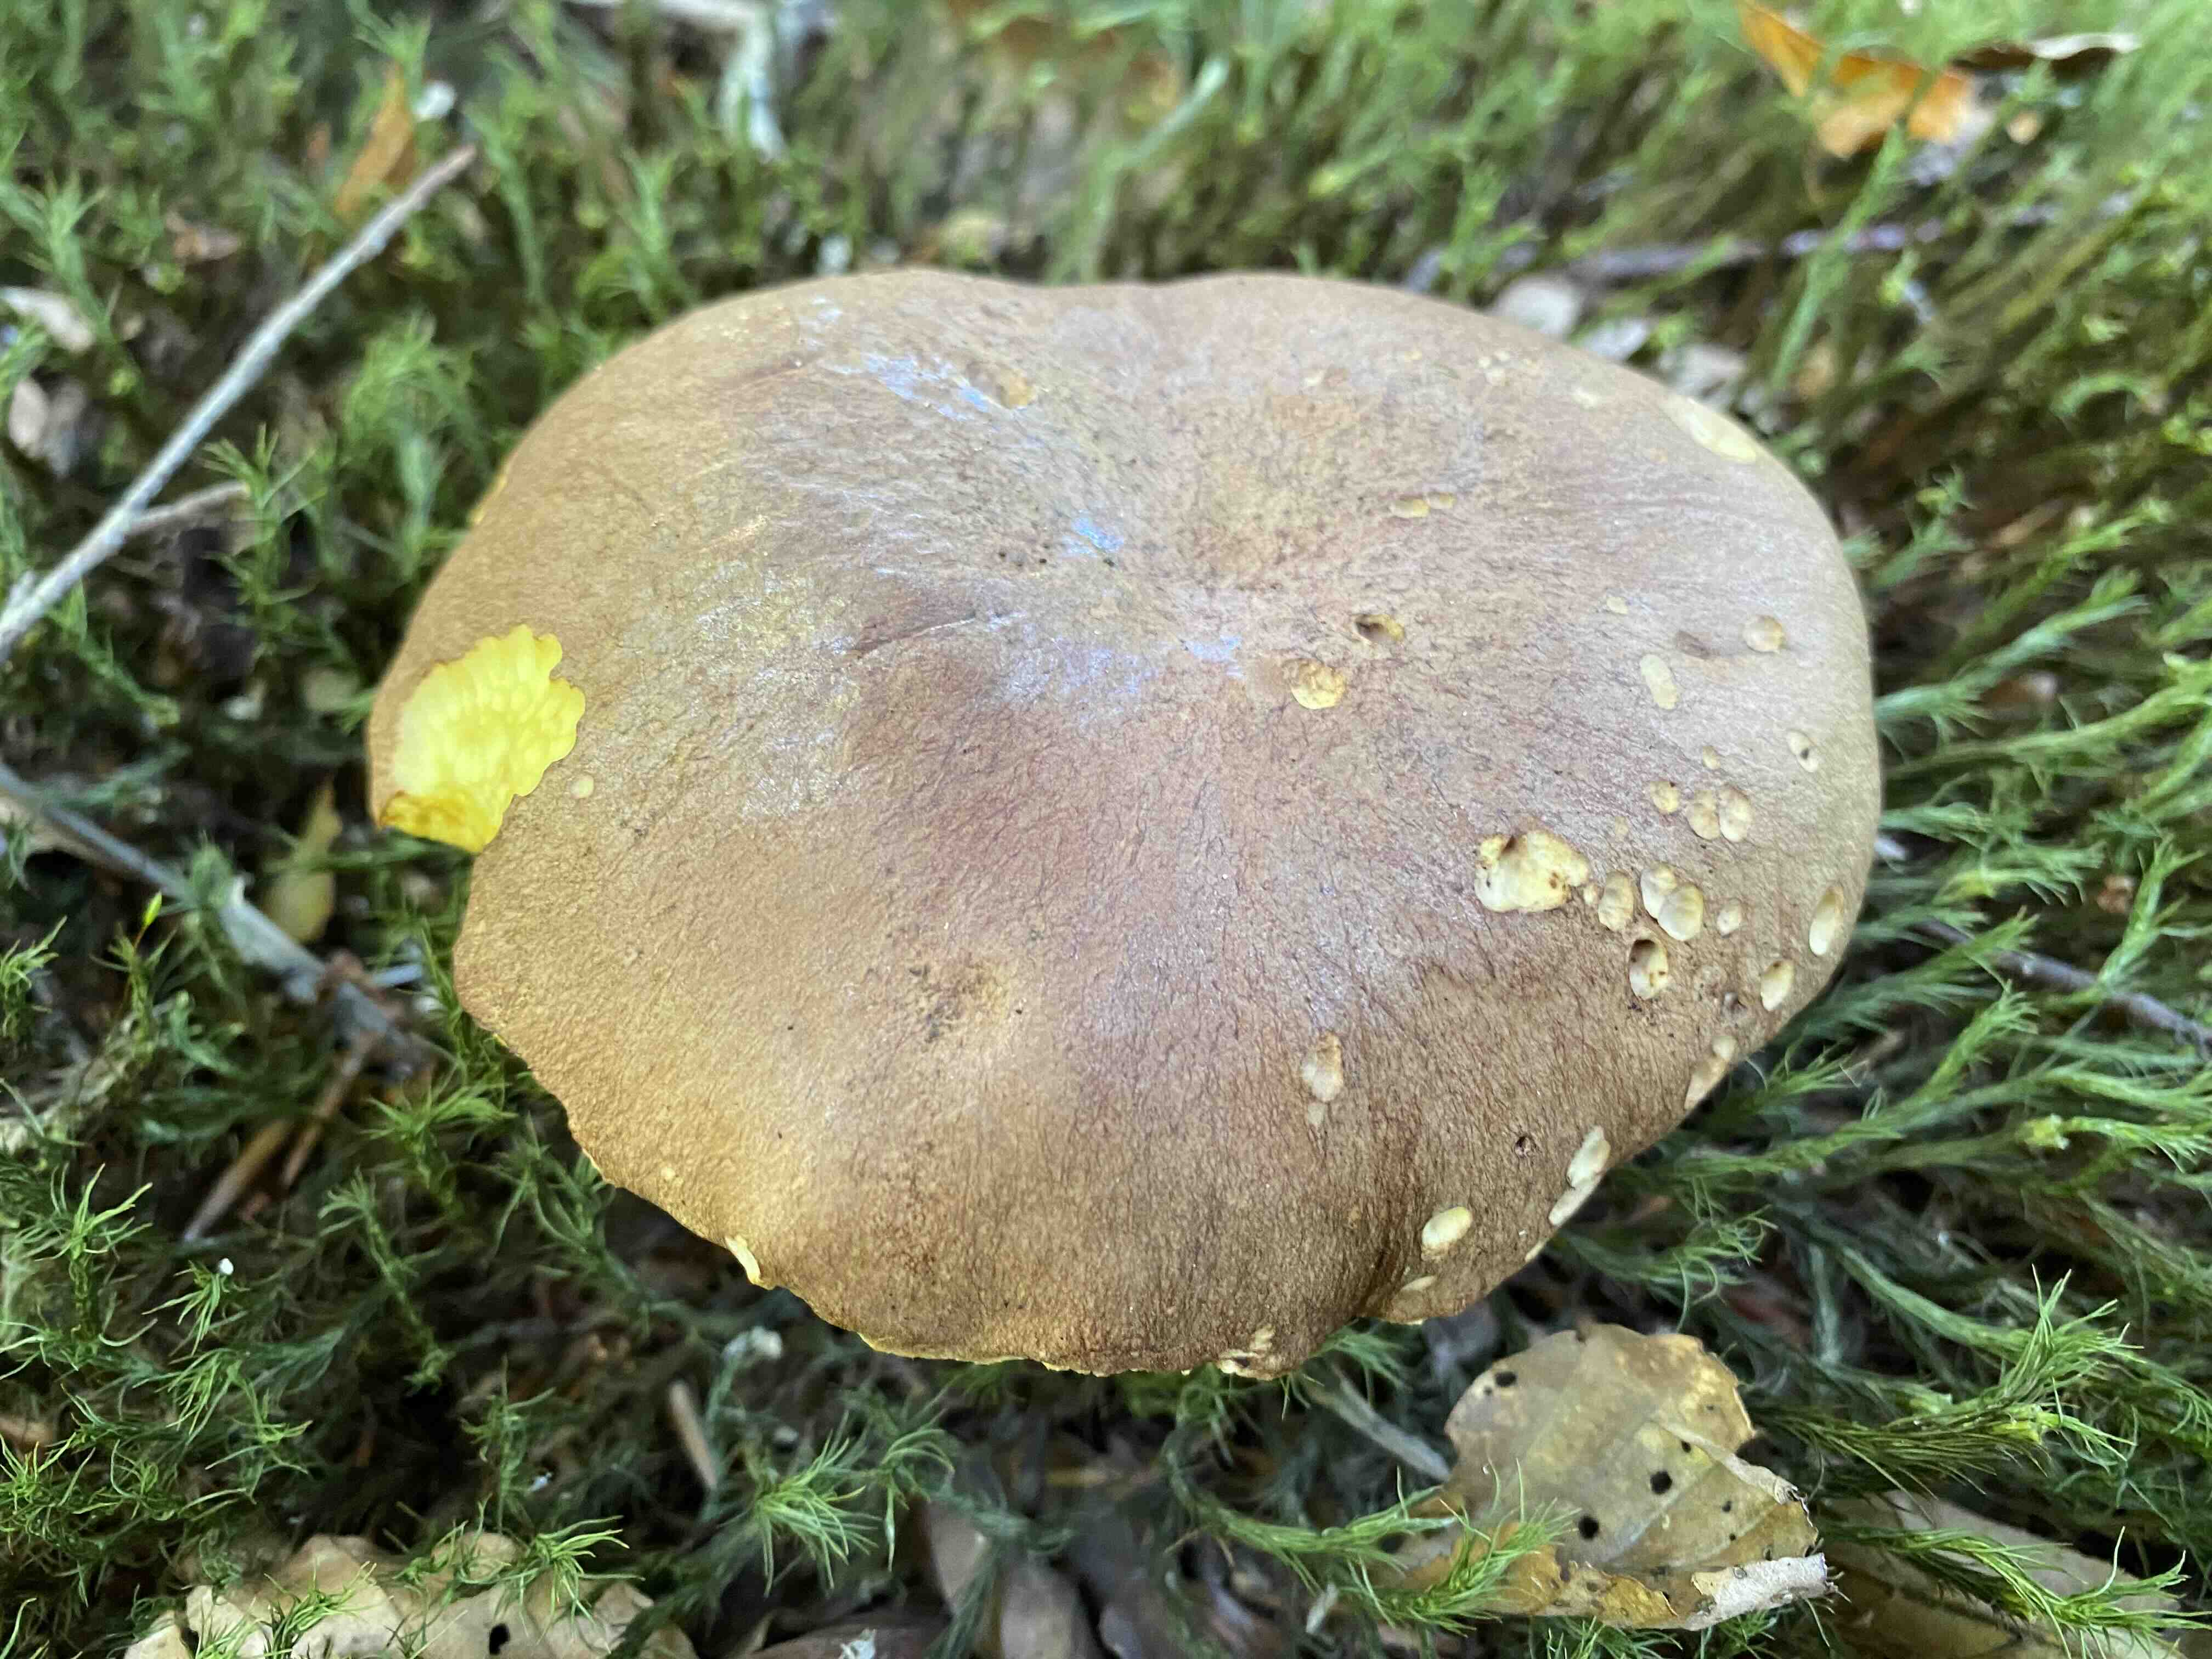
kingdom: Fungi
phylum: Basidiomycota
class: Agaricomycetes
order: Boletales
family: Boletaceae
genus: Butyriboletus
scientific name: Butyriboletus appendiculatus
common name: tenstokket rørhat
